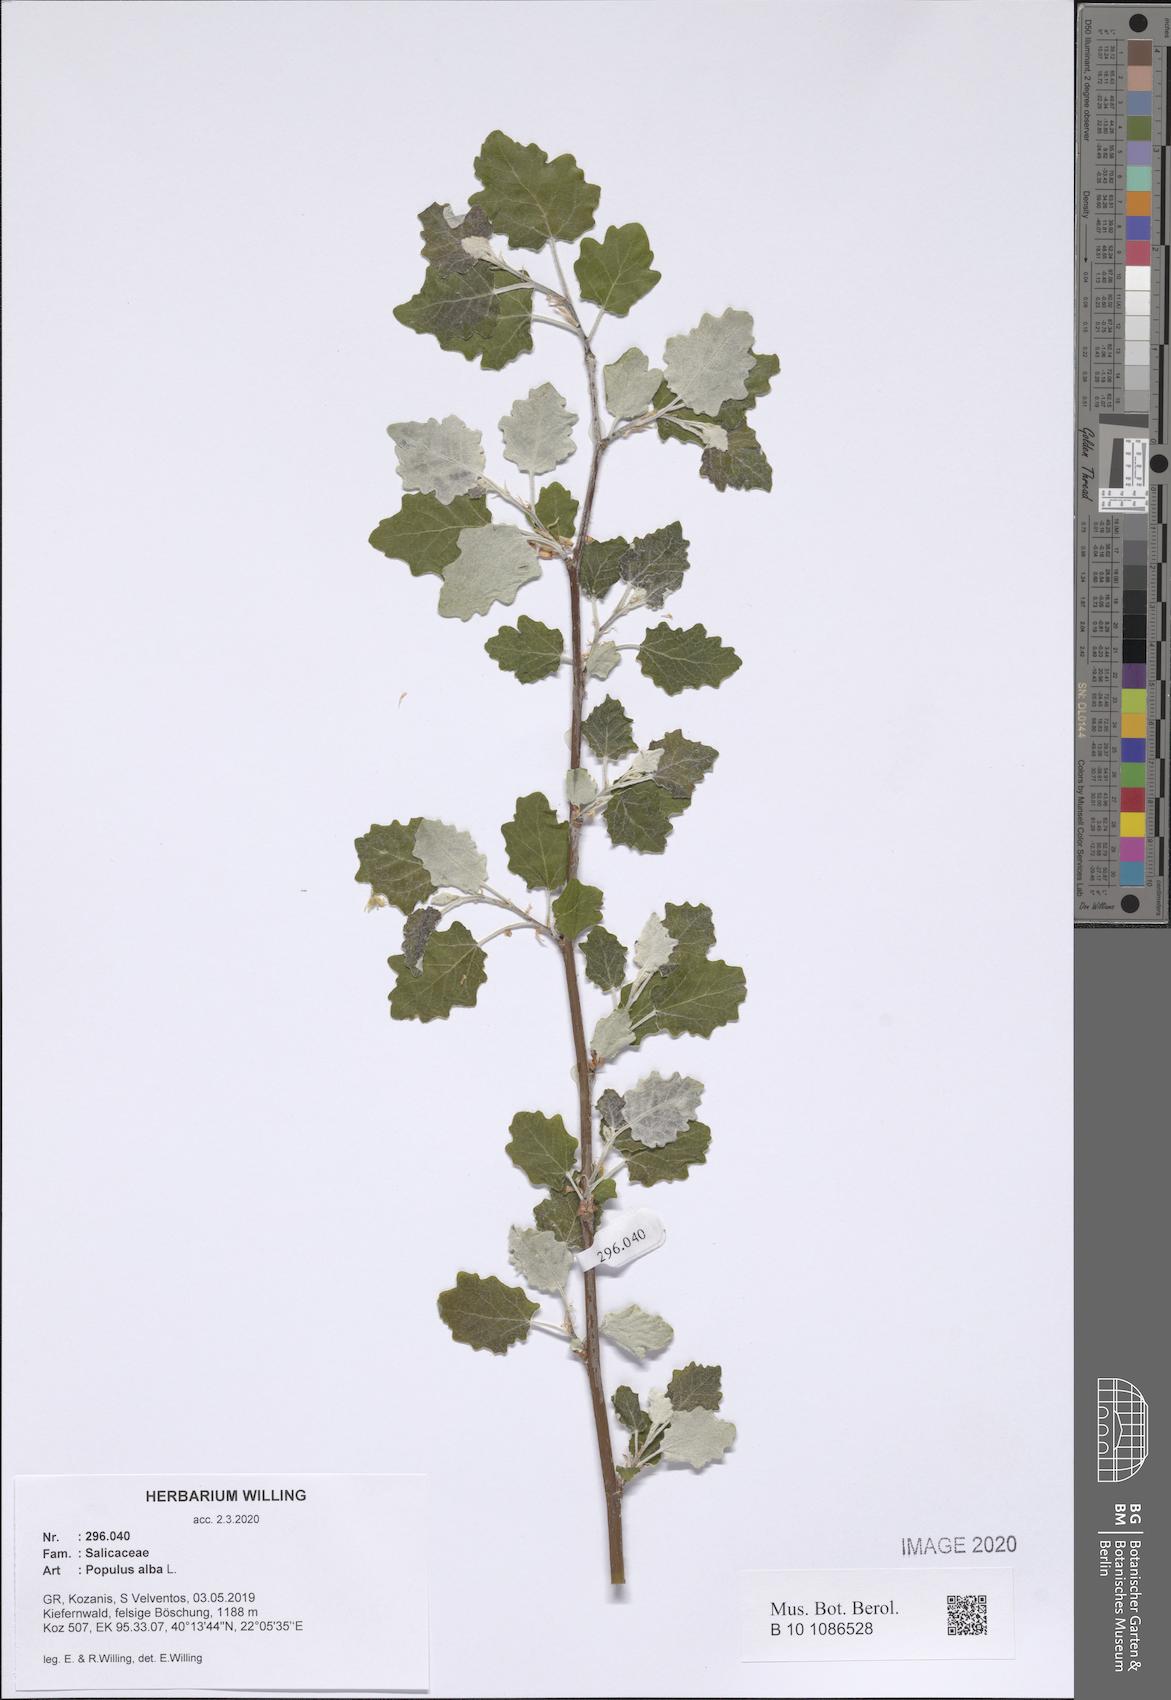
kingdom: Plantae
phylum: Tracheophyta
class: Magnoliopsida
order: Malpighiales
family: Salicaceae
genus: Populus
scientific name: Populus alba
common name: White poplar
